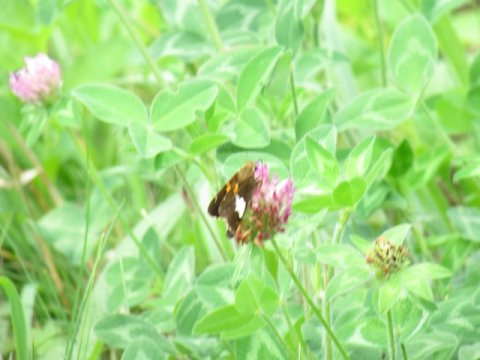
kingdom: Animalia
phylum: Arthropoda
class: Insecta
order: Lepidoptera
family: Hesperiidae
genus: Epargyreus
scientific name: Epargyreus clarus
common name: Silver-spotted Skipper
